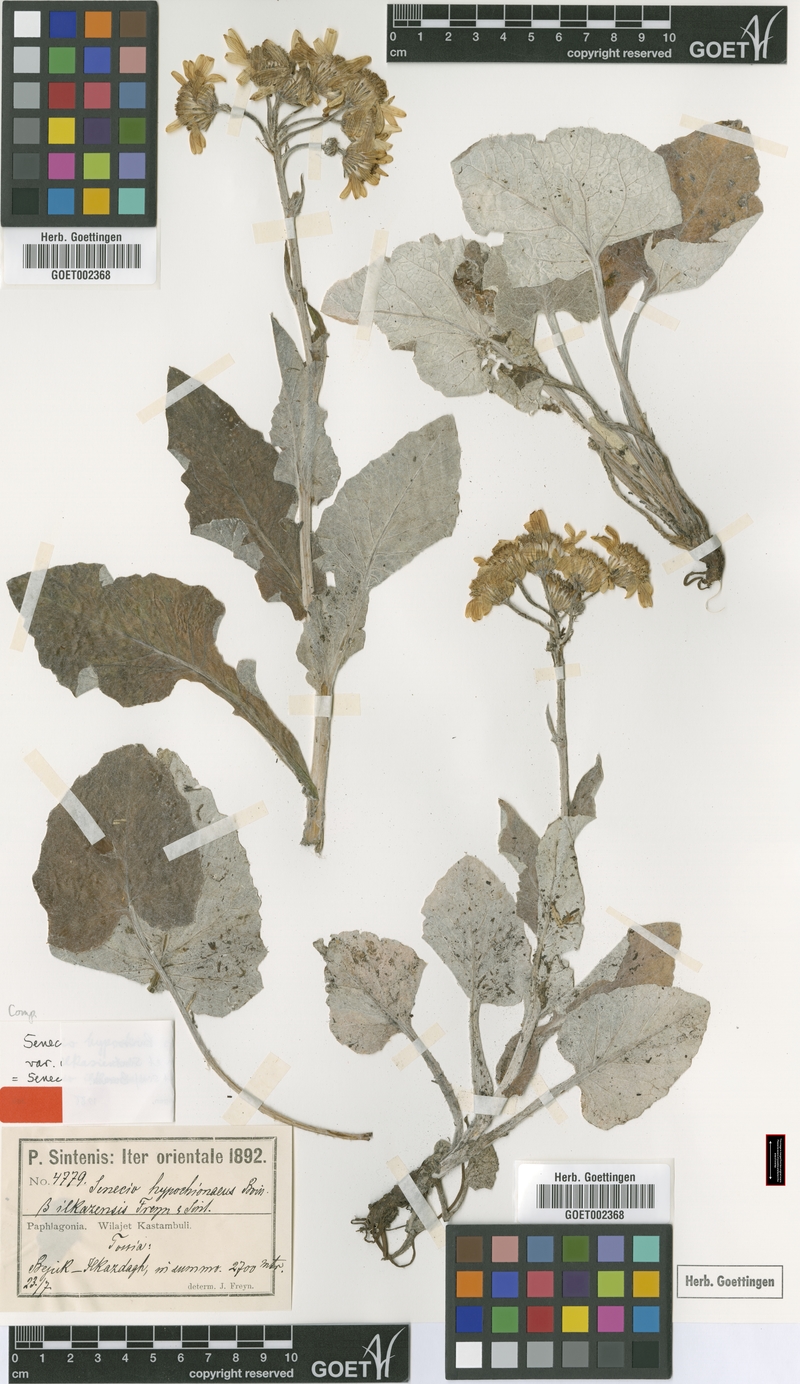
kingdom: Plantae
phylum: Tracheophyta
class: Magnoliopsida
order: Asterales
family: Asteraceae
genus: Turanecio
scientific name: Turanecio hypochionaeus
